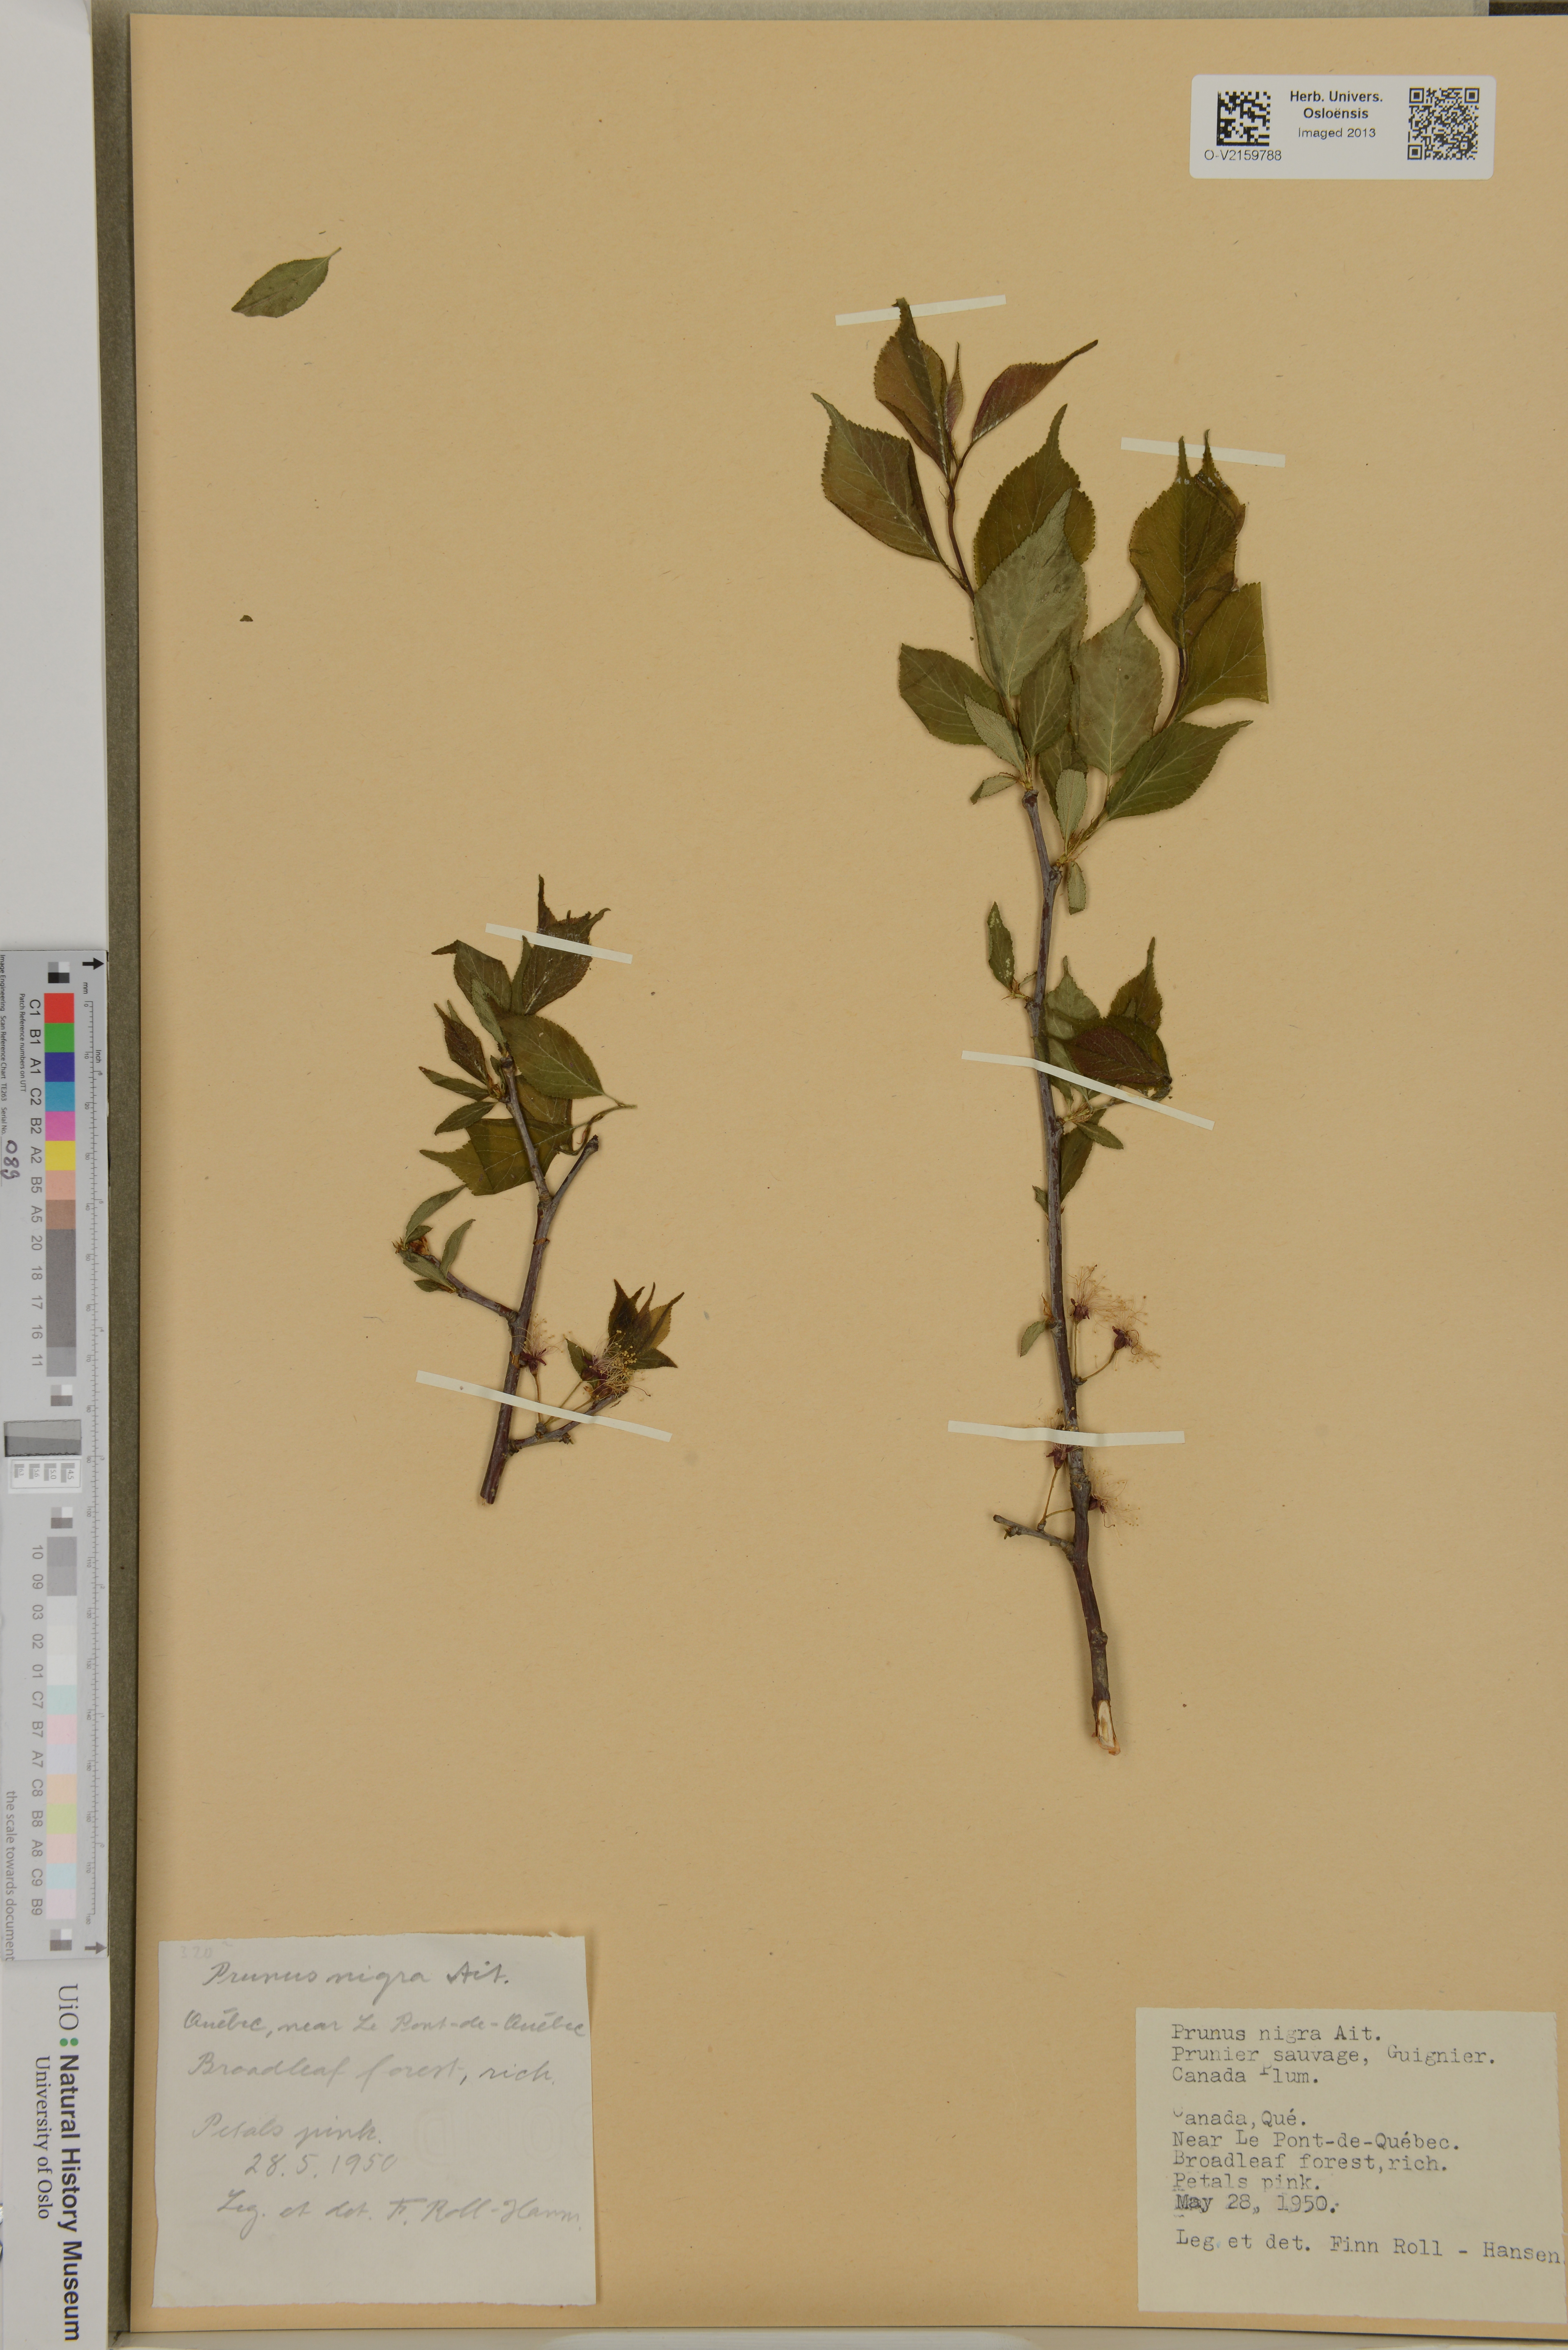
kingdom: Plantae
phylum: Tracheophyta
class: Magnoliopsida
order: Rosales
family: Rosaceae
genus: Prunus
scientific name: Prunus nigra
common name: Black plum
